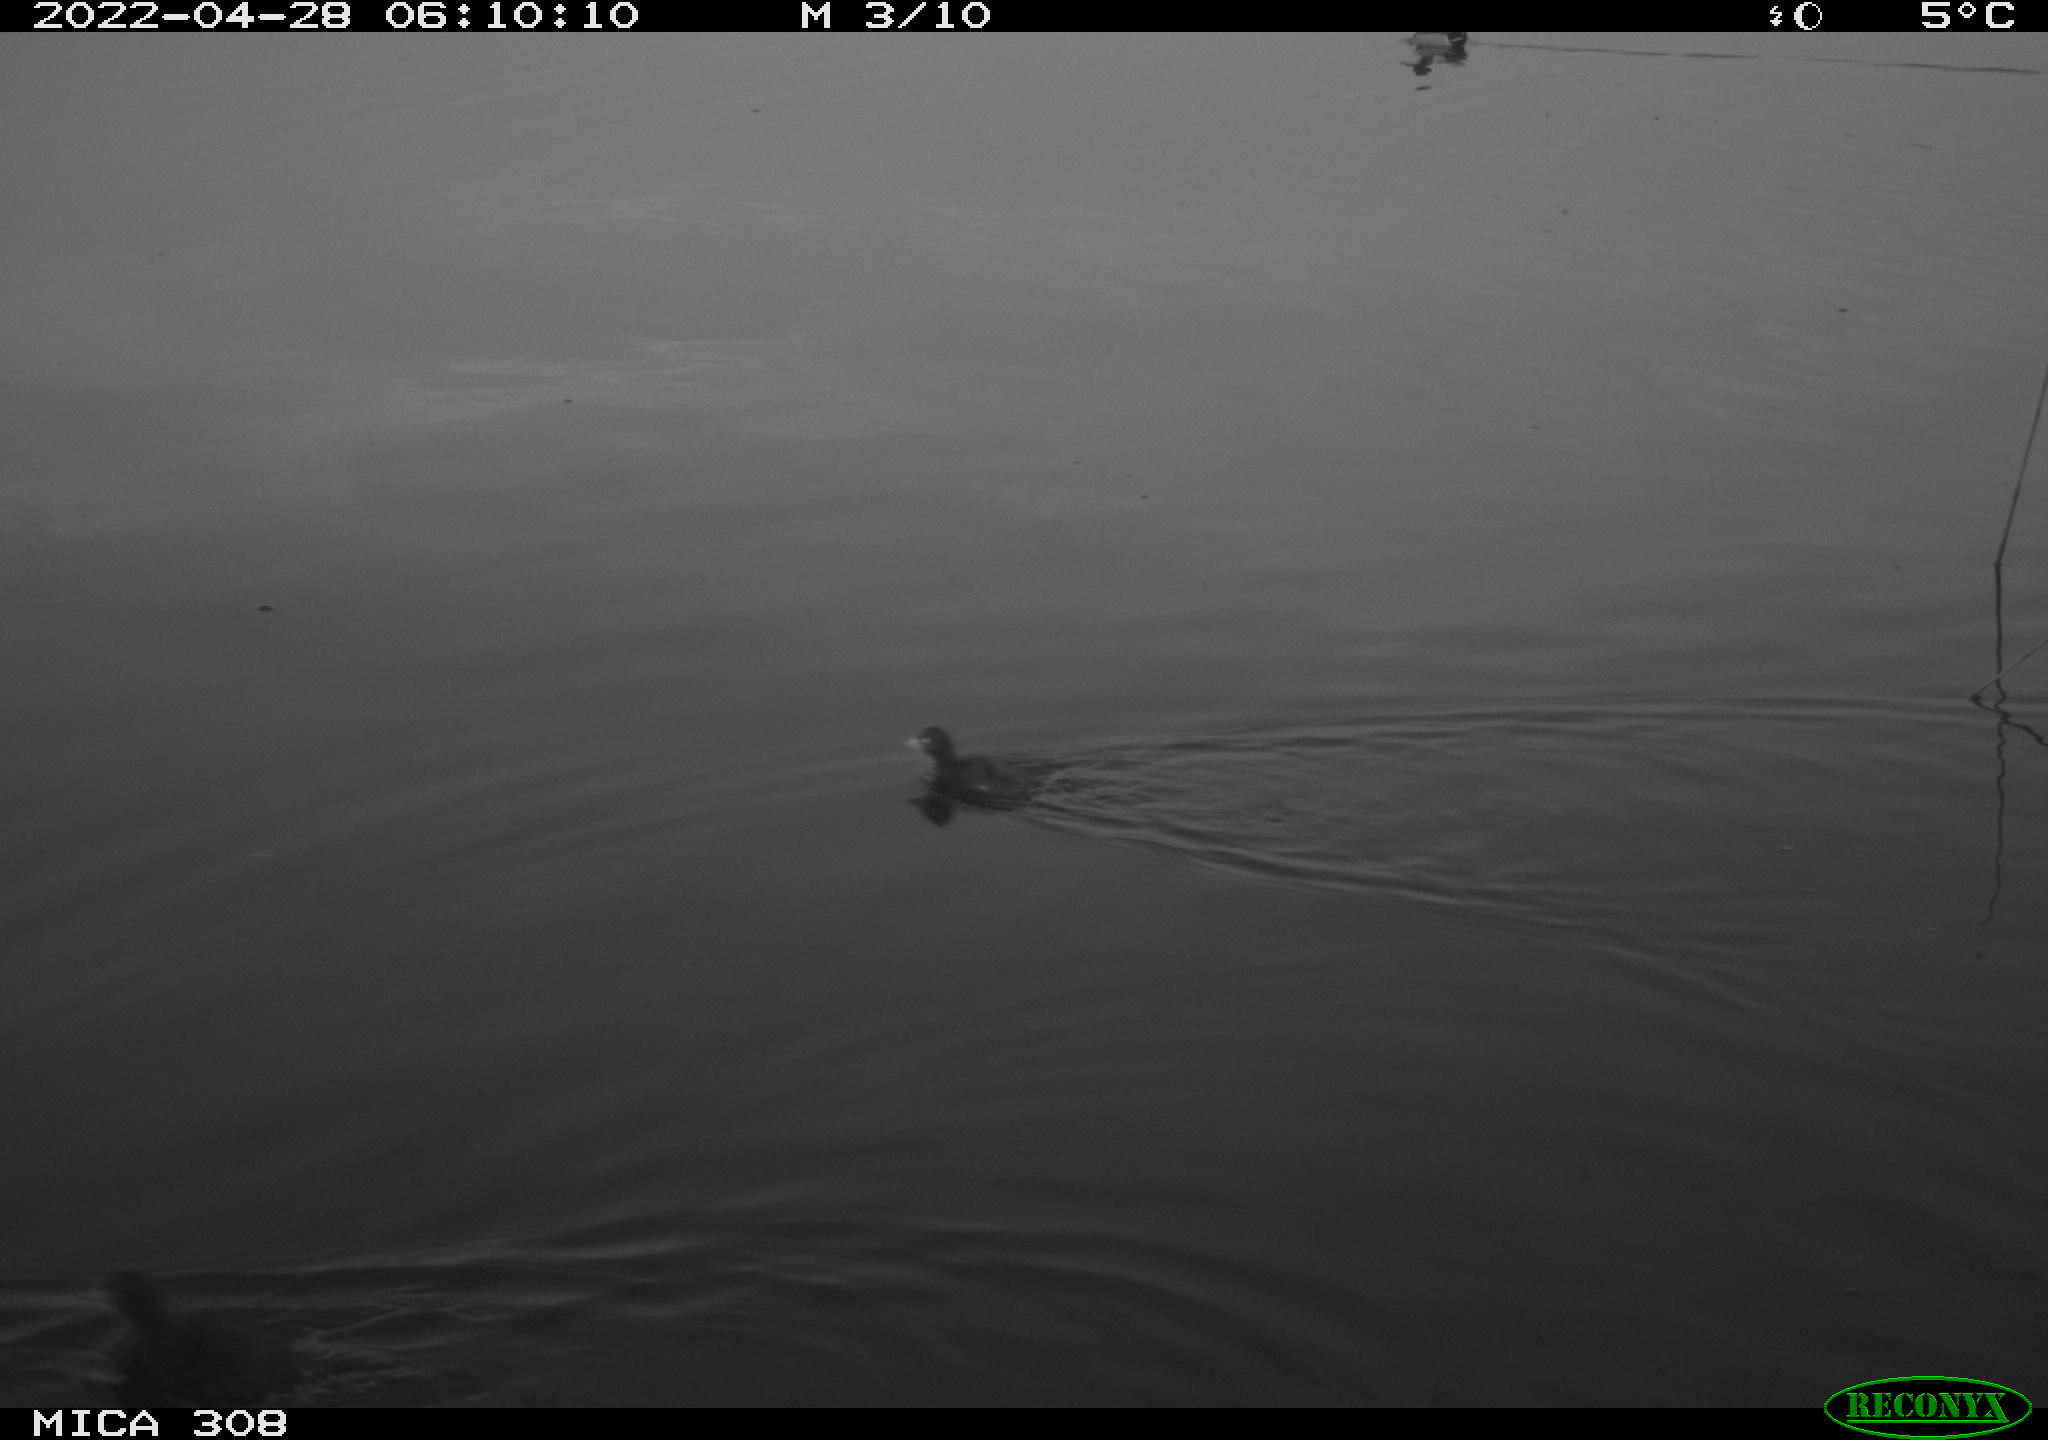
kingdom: Animalia
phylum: Chordata
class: Aves
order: Anseriformes
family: Anatidae
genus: Anas
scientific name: Anas platyrhynchos
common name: Mallard
